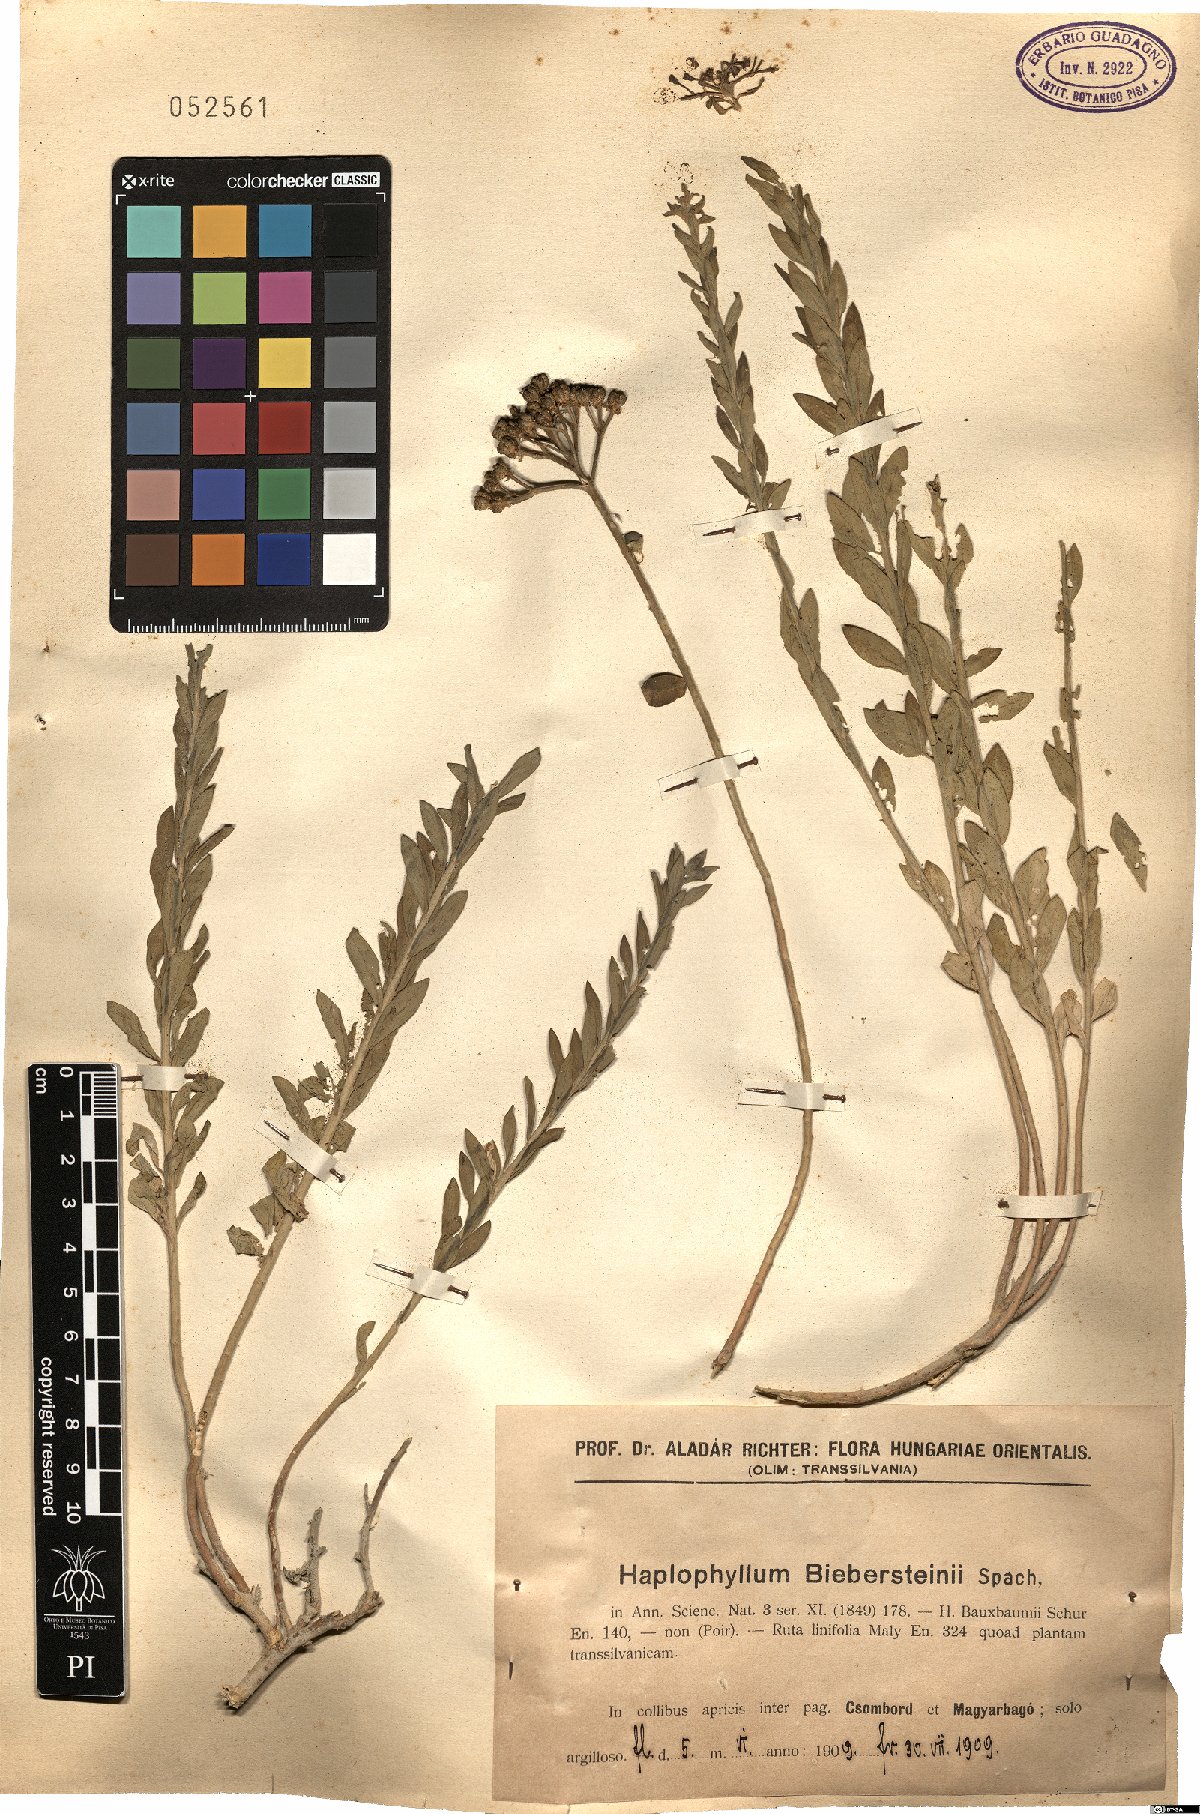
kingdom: Plantae
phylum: Tracheophyta
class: Magnoliopsida
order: Sapindales
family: Rutaceae
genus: Haplophyllum
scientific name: Haplophyllum buxbaumii
